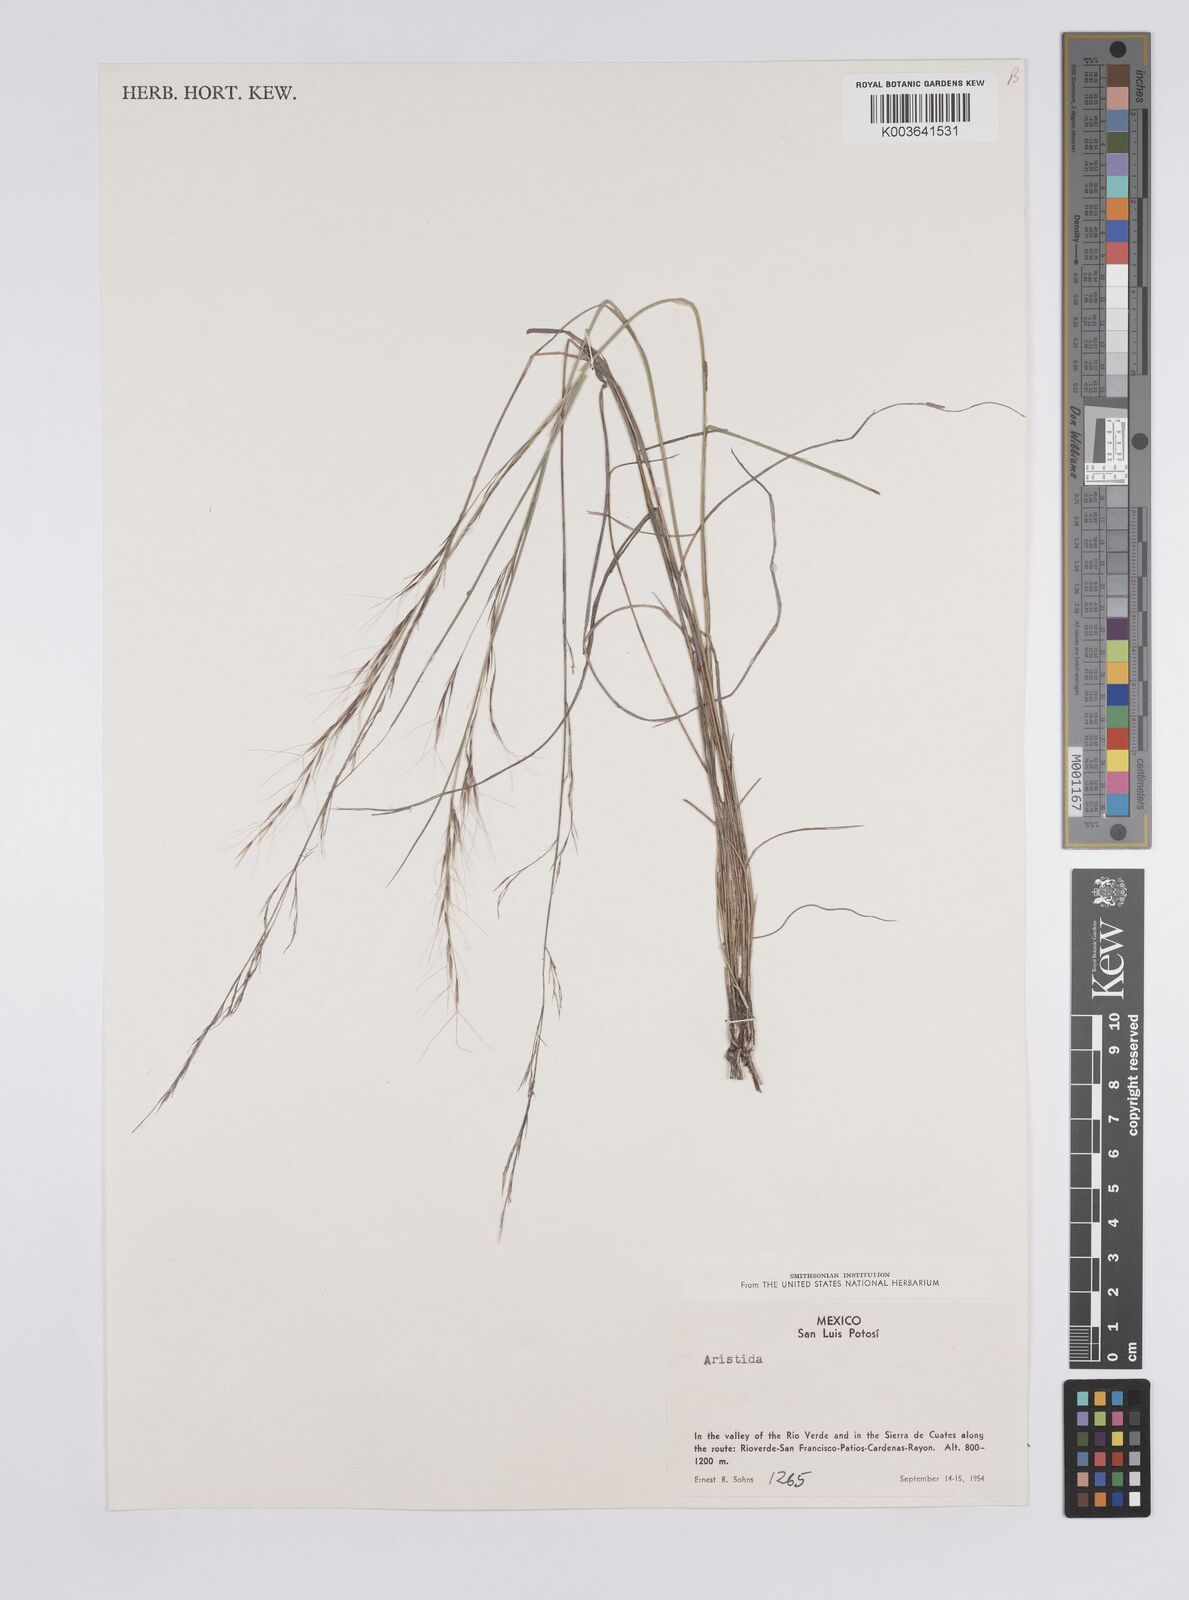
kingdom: Plantae
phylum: Tracheophyta
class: Liliopsida
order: Poales
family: Poaceae
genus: Aristida
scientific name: Aristida
